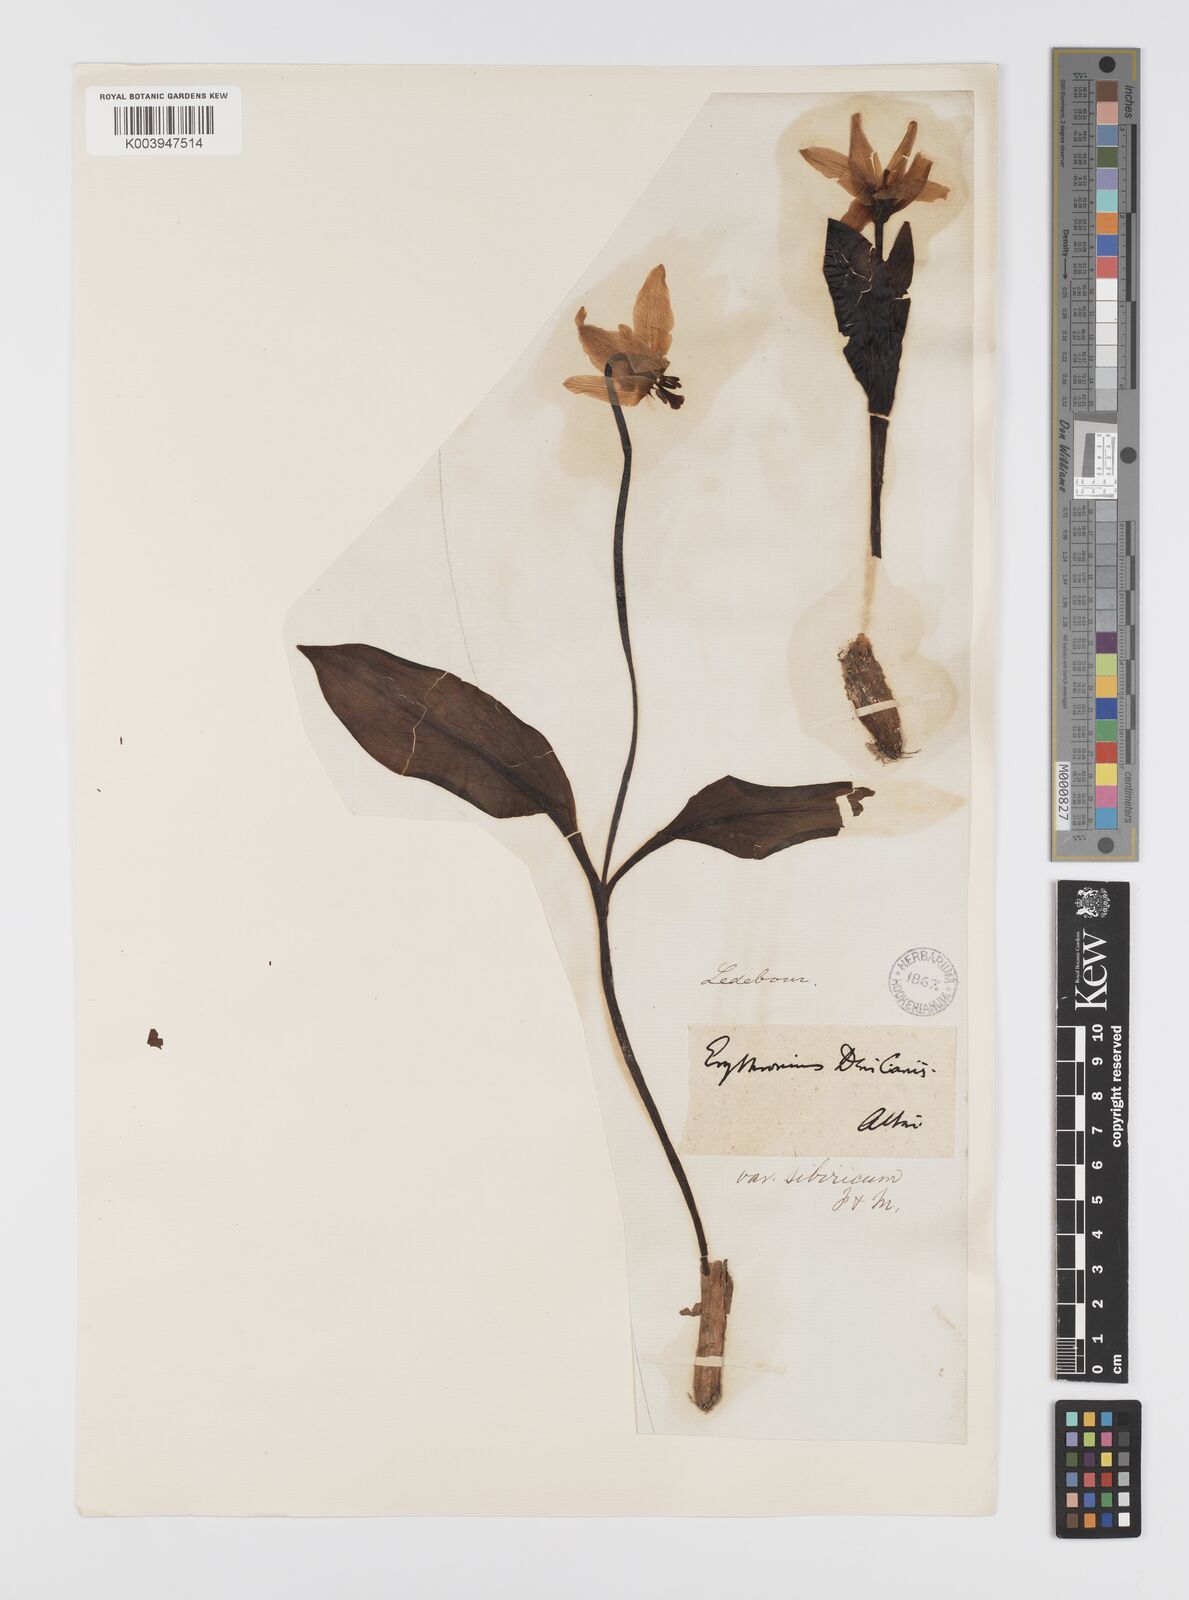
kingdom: Plantae
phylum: Tracheophyta
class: Liliopsida
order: Liliales
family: Liliaceae
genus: Erythronium
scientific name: Erythronium dens-canis
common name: Dog's-tooth-violet
